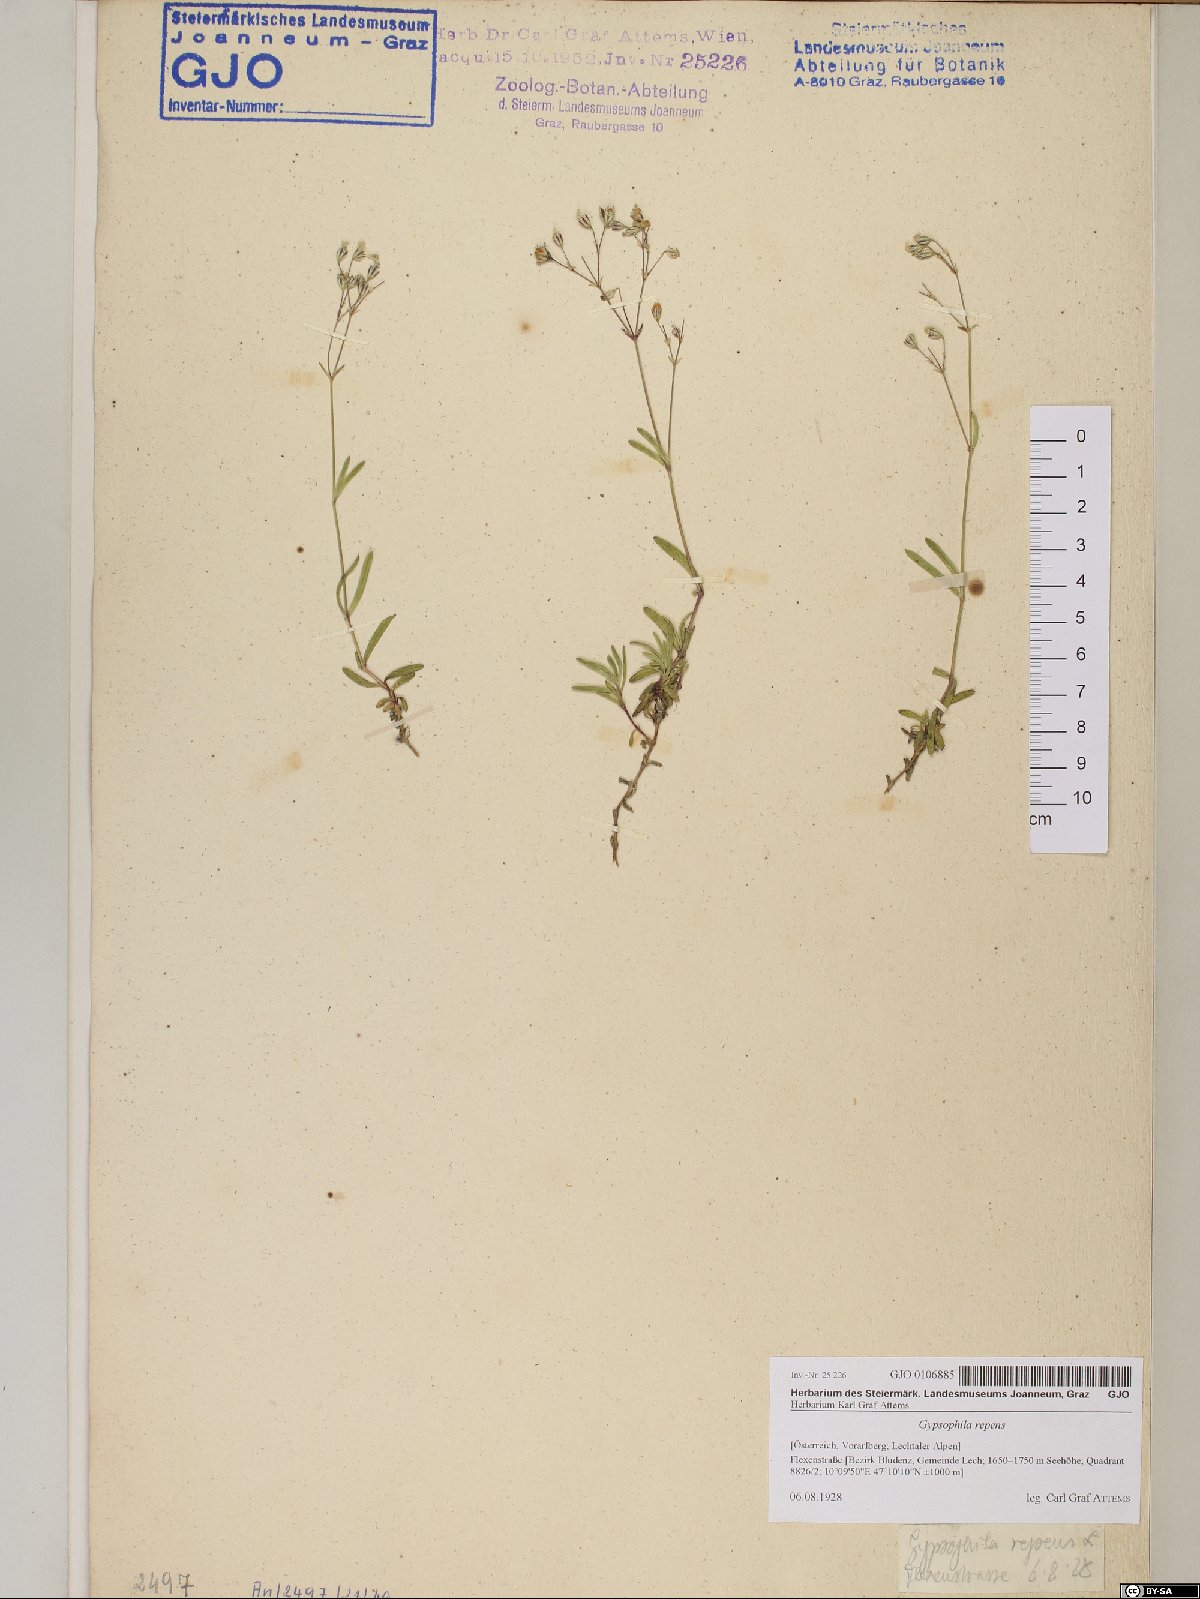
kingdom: Plantae
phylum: Tracheophyta
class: Magnoliopsida
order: Caryophyllales
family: Caryophyllaceae
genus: Gypsophila
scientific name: Gypsophila repens
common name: Creeping baby's-breath
